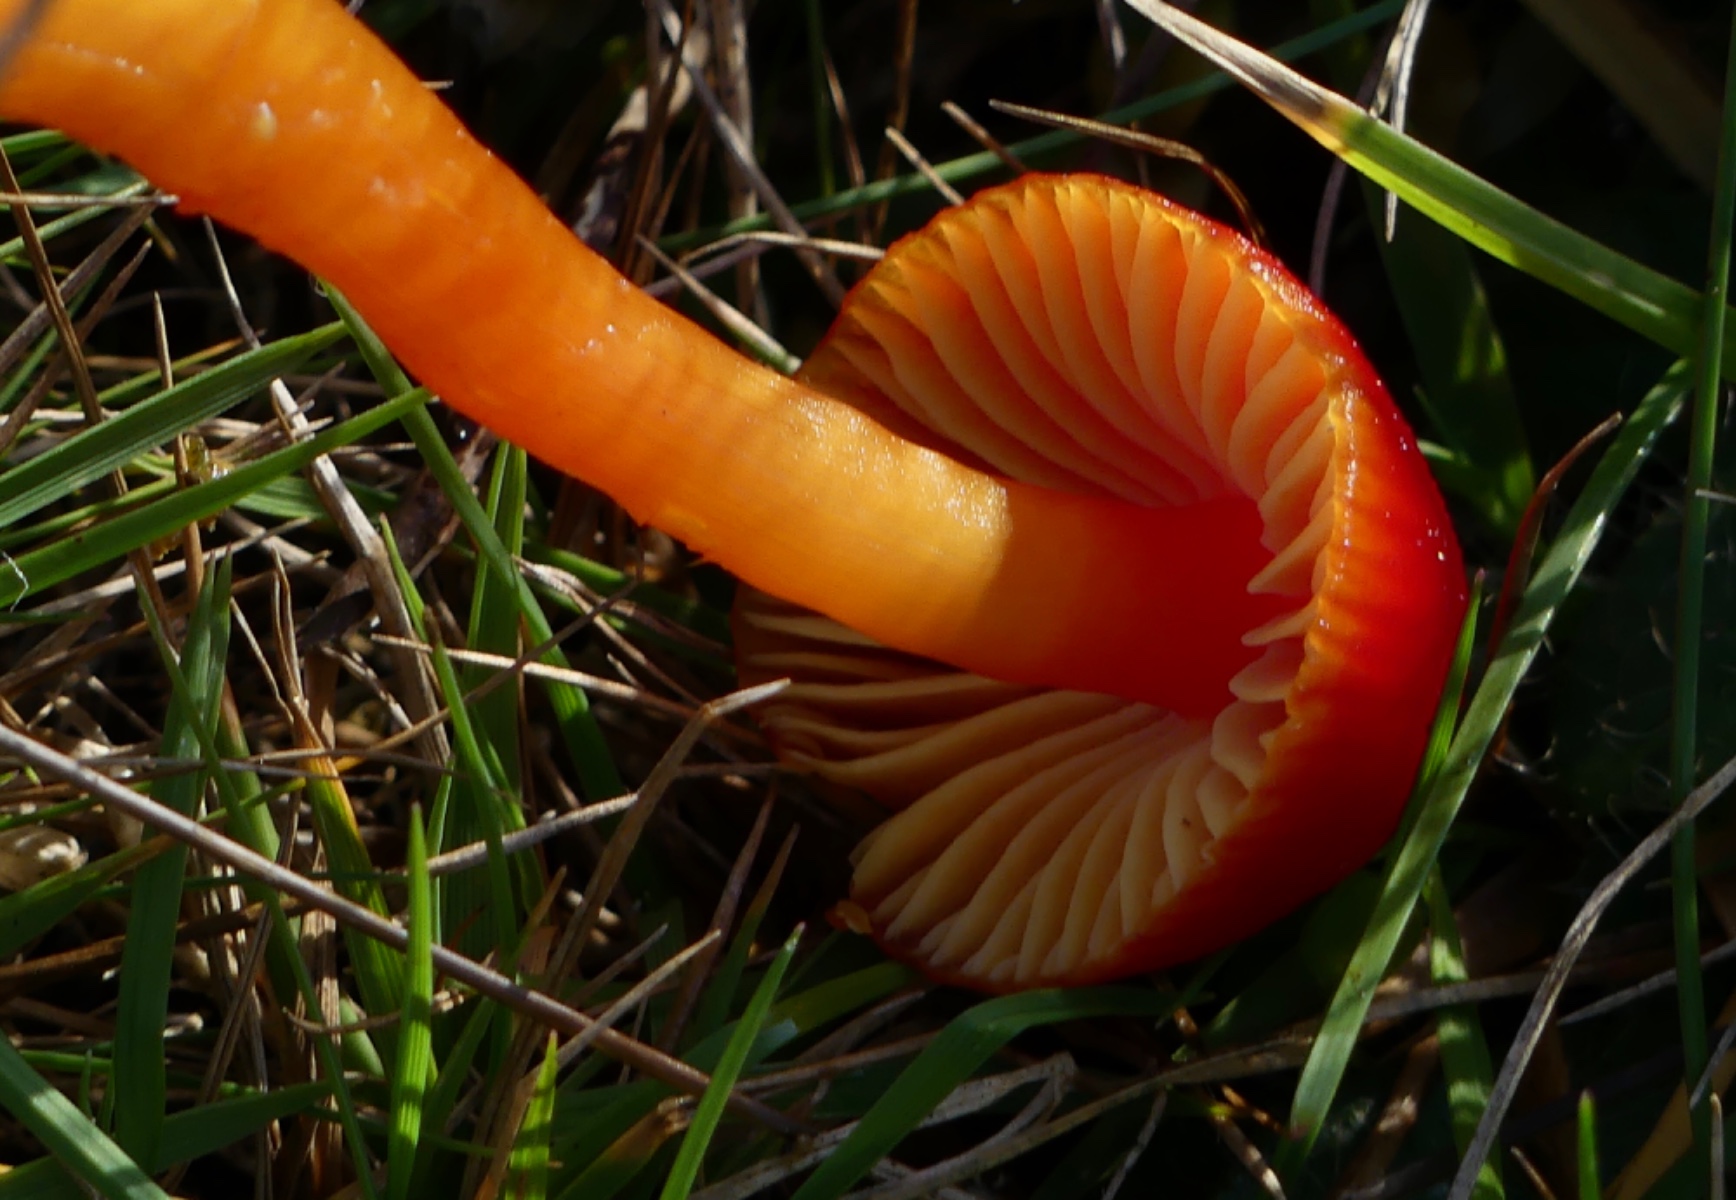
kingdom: Fungi
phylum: Basidiomycota
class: Agaricomycetes
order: Agaricales
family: Hygrophoraceae
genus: Hygrocybe
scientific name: Hygrocybe coccinea
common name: cinnober-vokshat
